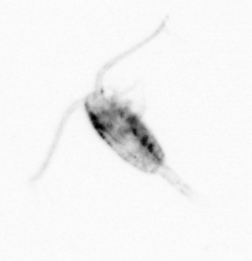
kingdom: Animalia
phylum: Arthropoda
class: Copepoda
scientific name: Copepoda
